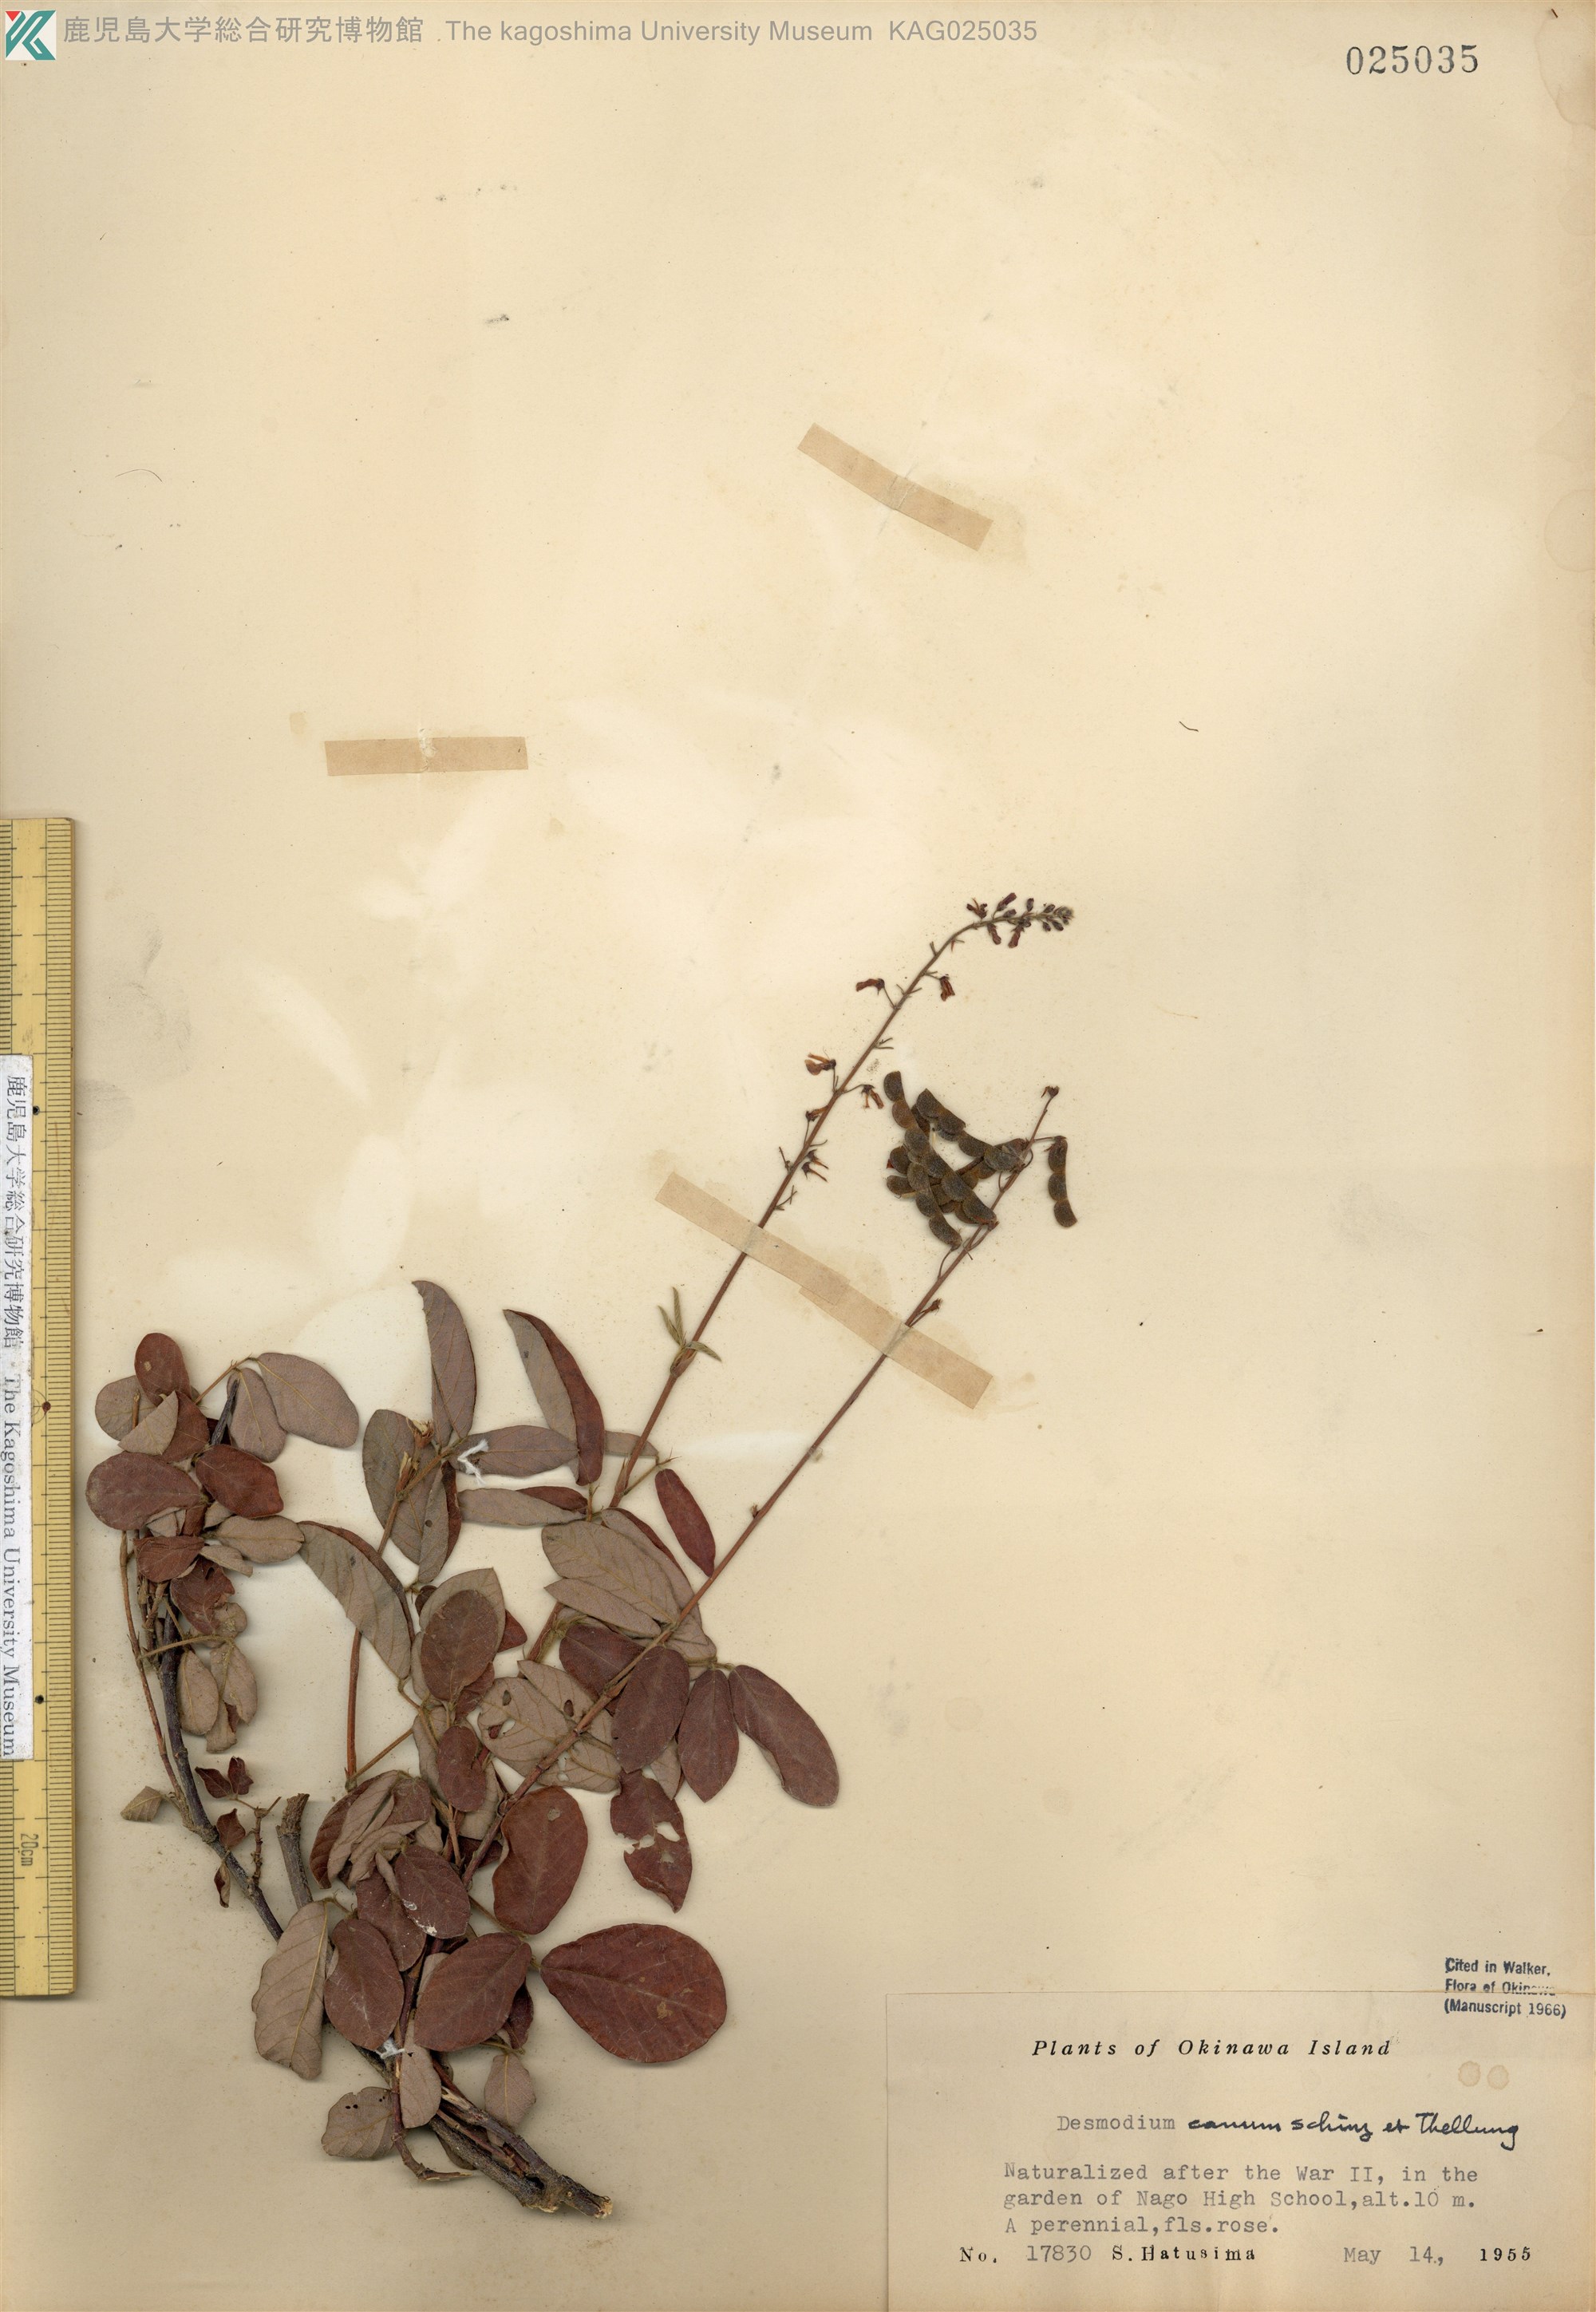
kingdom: Plantae
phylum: Tracheophyta
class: Magnoliopsida
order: Fabales
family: Fabaceae
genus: Desmodium
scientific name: Desmodium incanum
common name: Tickclover
